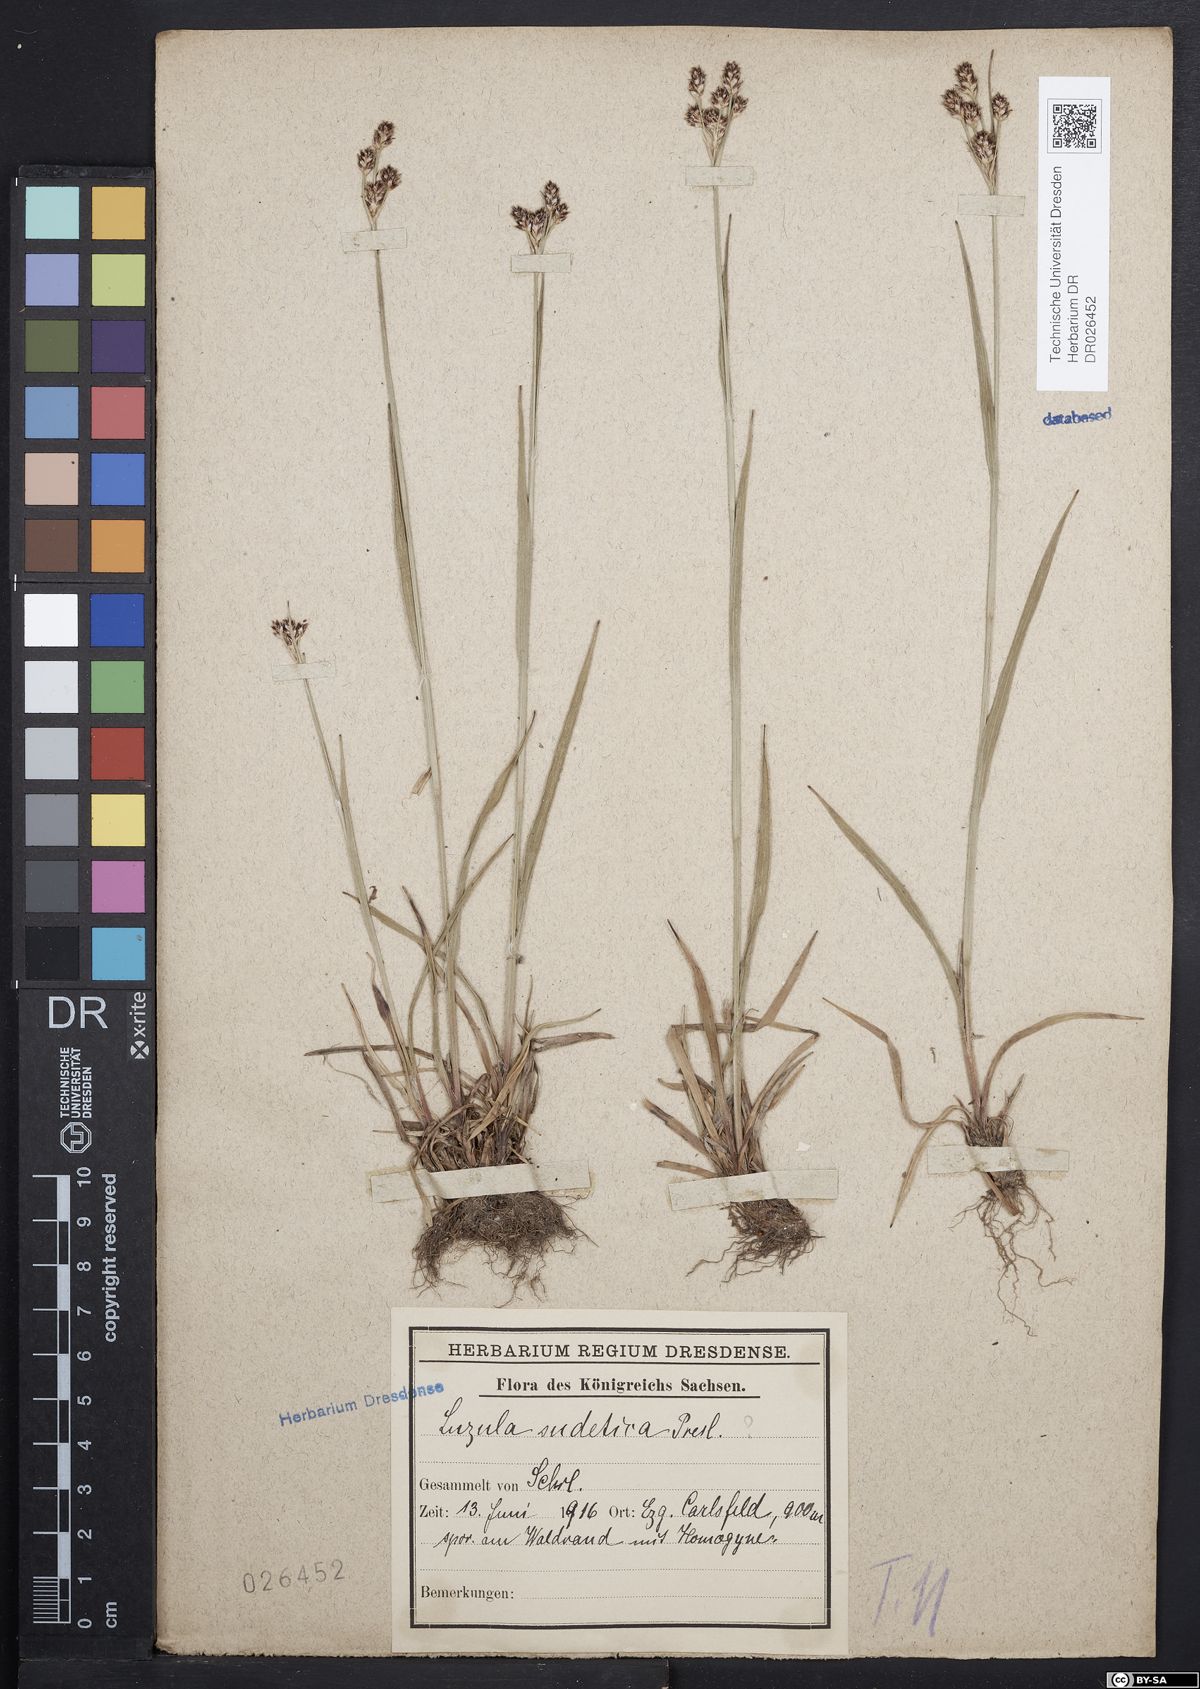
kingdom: Plantae
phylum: Tracheophyta
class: Liliopsida
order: Poales
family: Juncaceae
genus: Luzula
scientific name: Luzula sudetica
